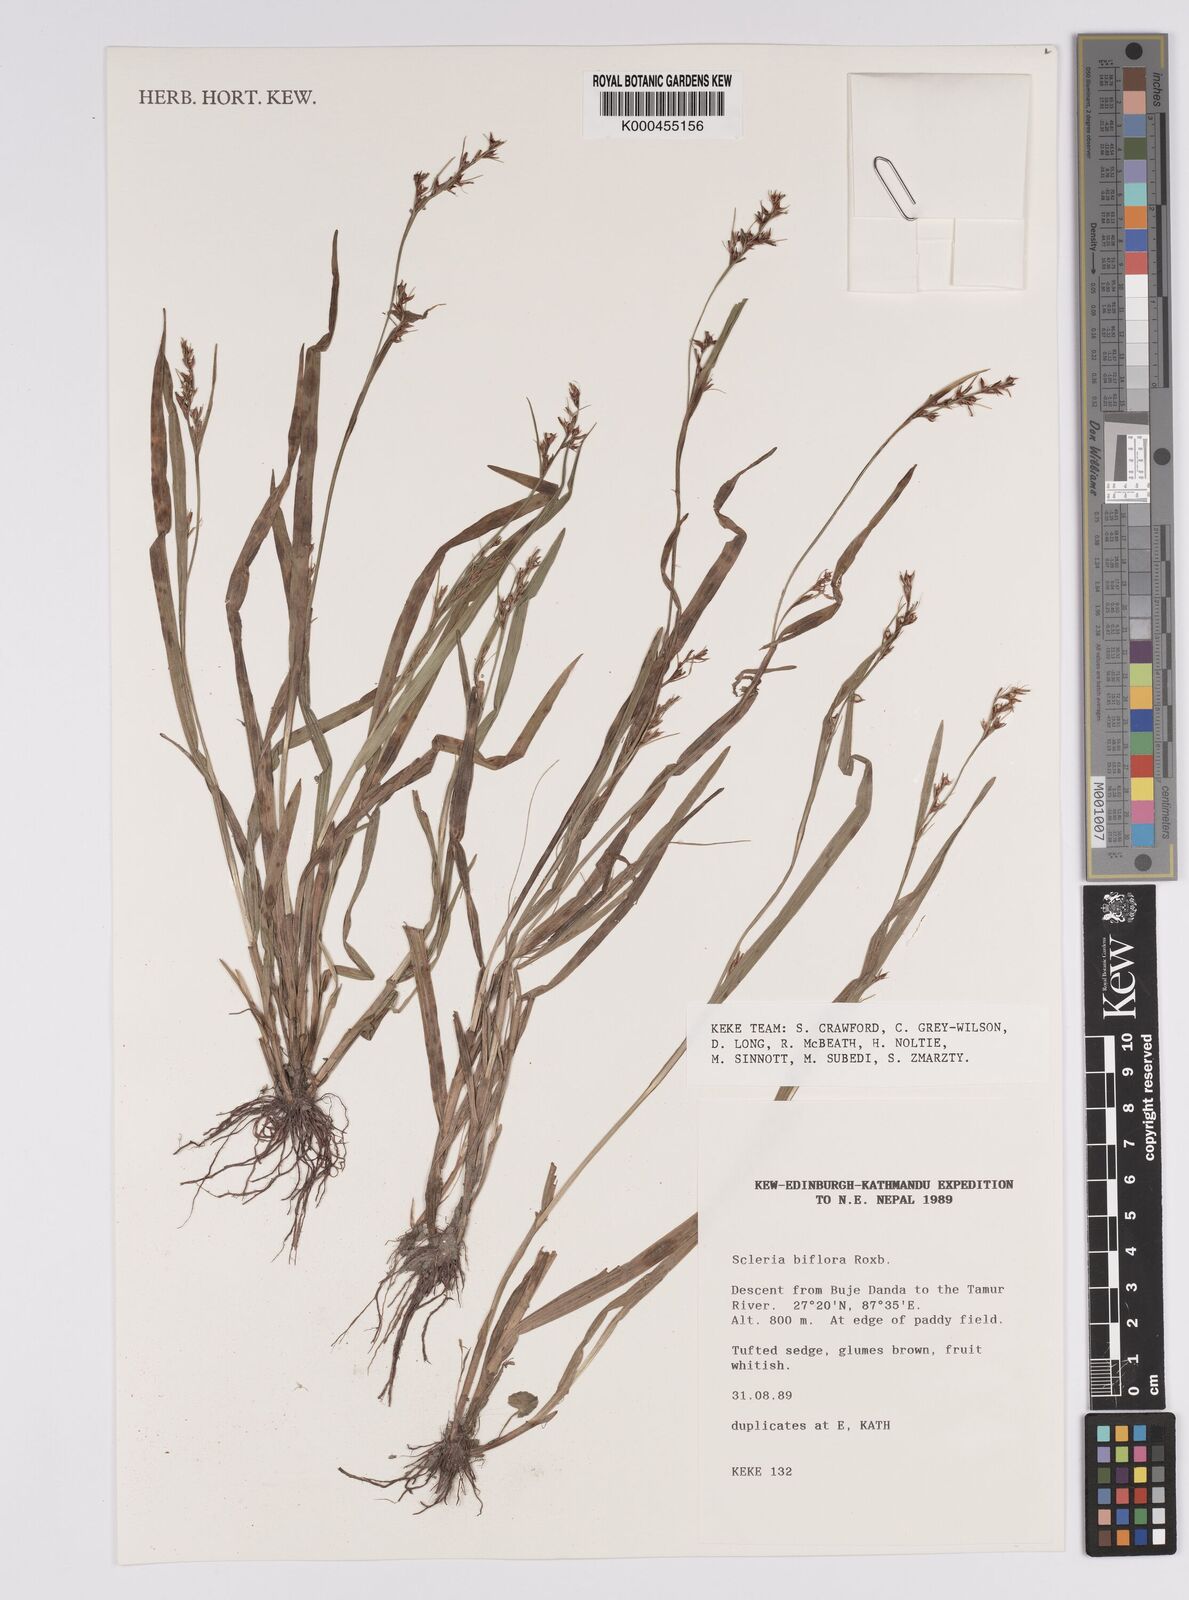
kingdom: Plantae
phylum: Tracheophyta
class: Liliopsida
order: Poales
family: Cyperaceae
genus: Scleria
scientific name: Scleria biflora
